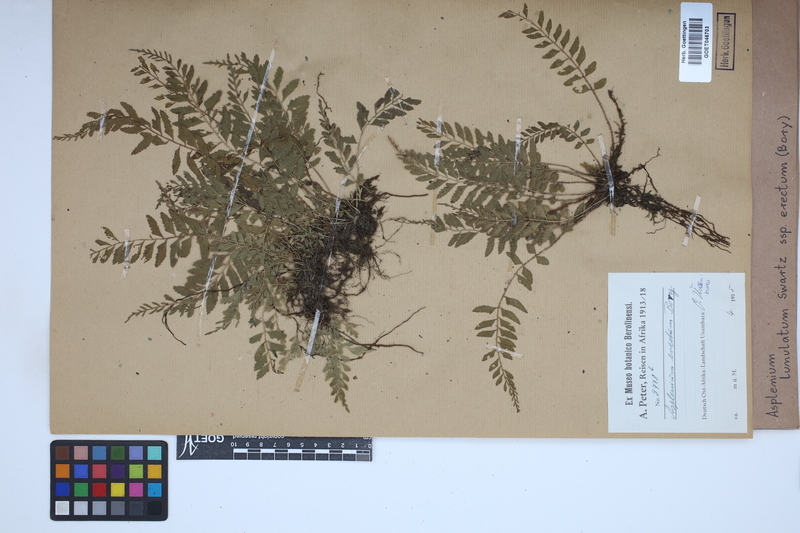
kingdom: Plantae
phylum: Tracheophyta
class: Polypodiopsida
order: Polypodiales
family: Aspleniaceae
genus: Asplenium
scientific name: Asplenium erectum
